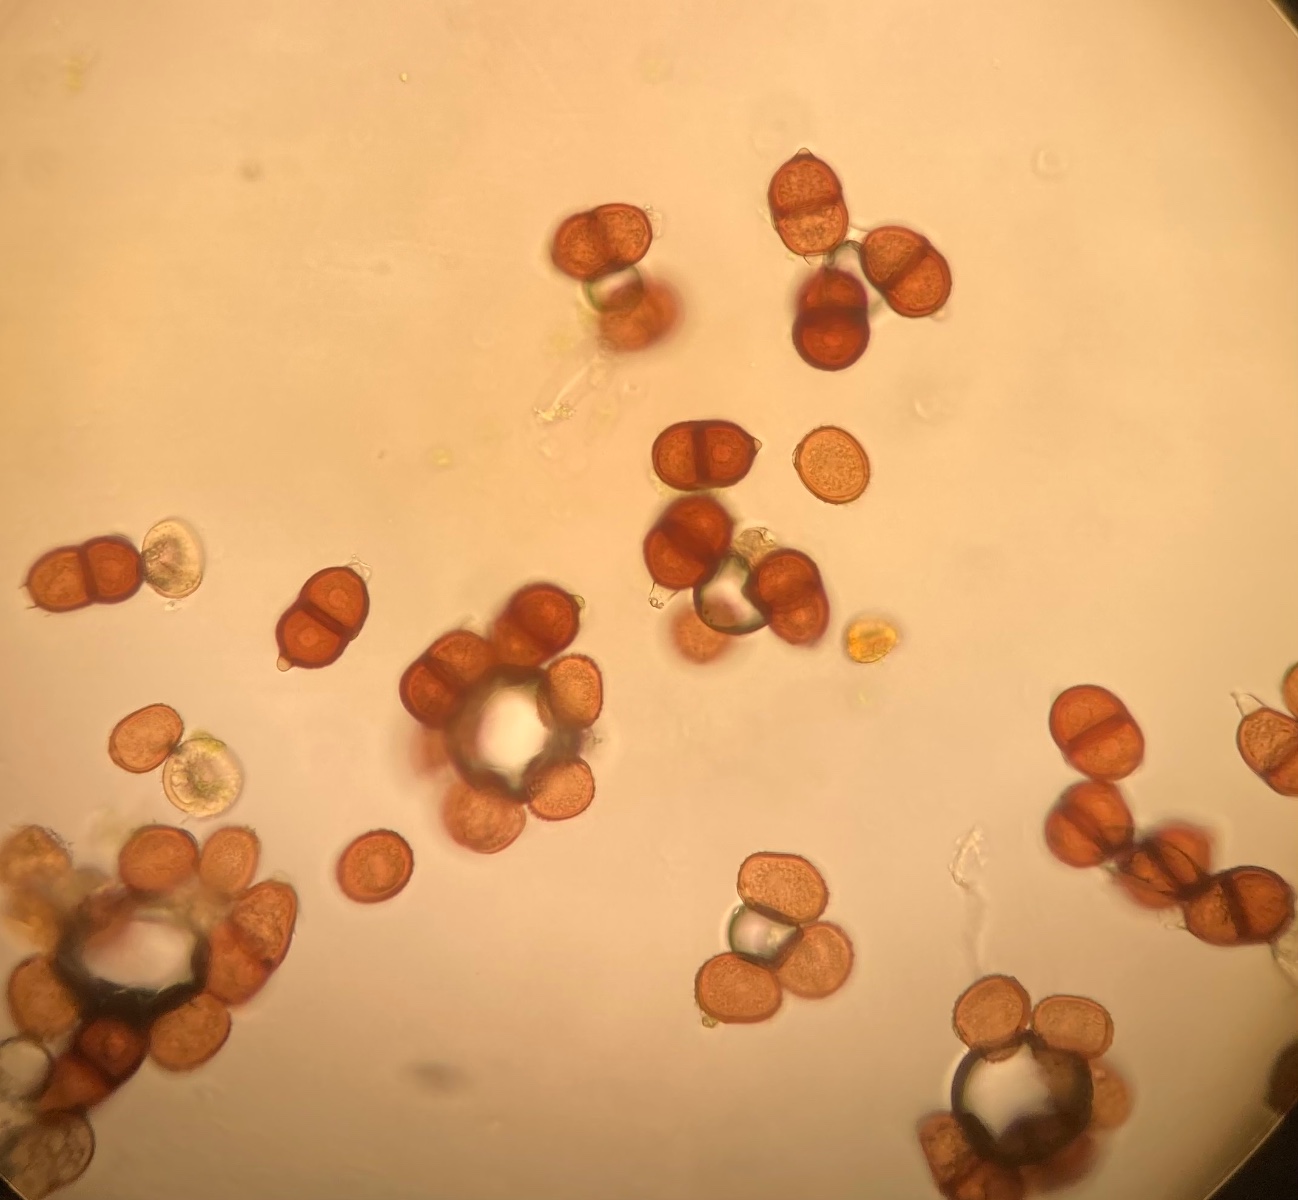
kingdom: Fungi
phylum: Basidiomycota
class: Pucciniomycetes
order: Pucciniales
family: Pucciniaceae
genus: Puccinia
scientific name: Puccinia komarovii
